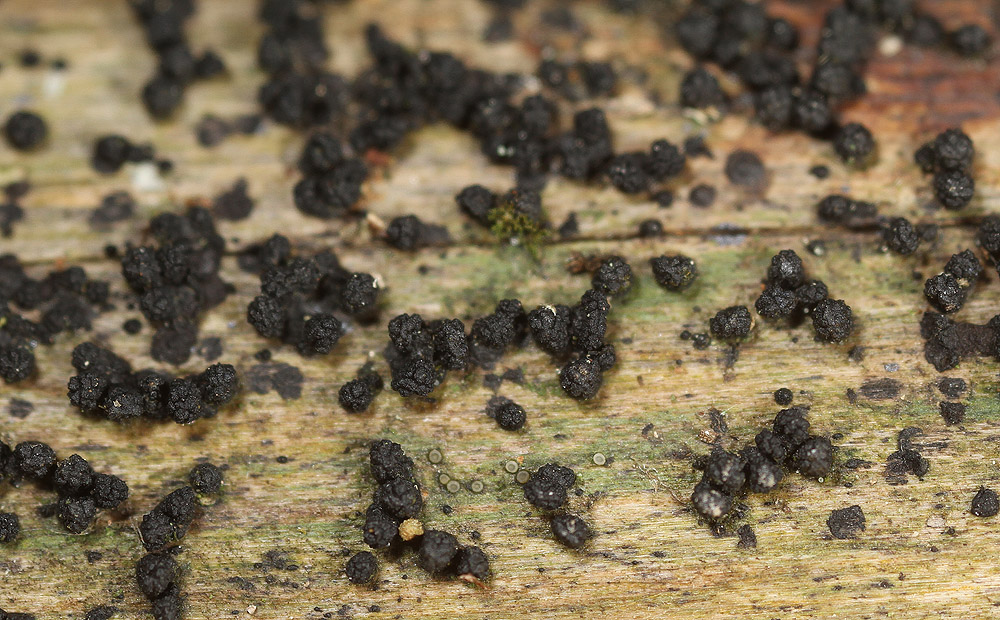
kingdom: Fungi
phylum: Ascomycota
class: Sordariomycetes
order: Coronophorales
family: Bertiaceae
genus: Bertia
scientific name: Bertia moriformis
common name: almindelig morbærkerne
